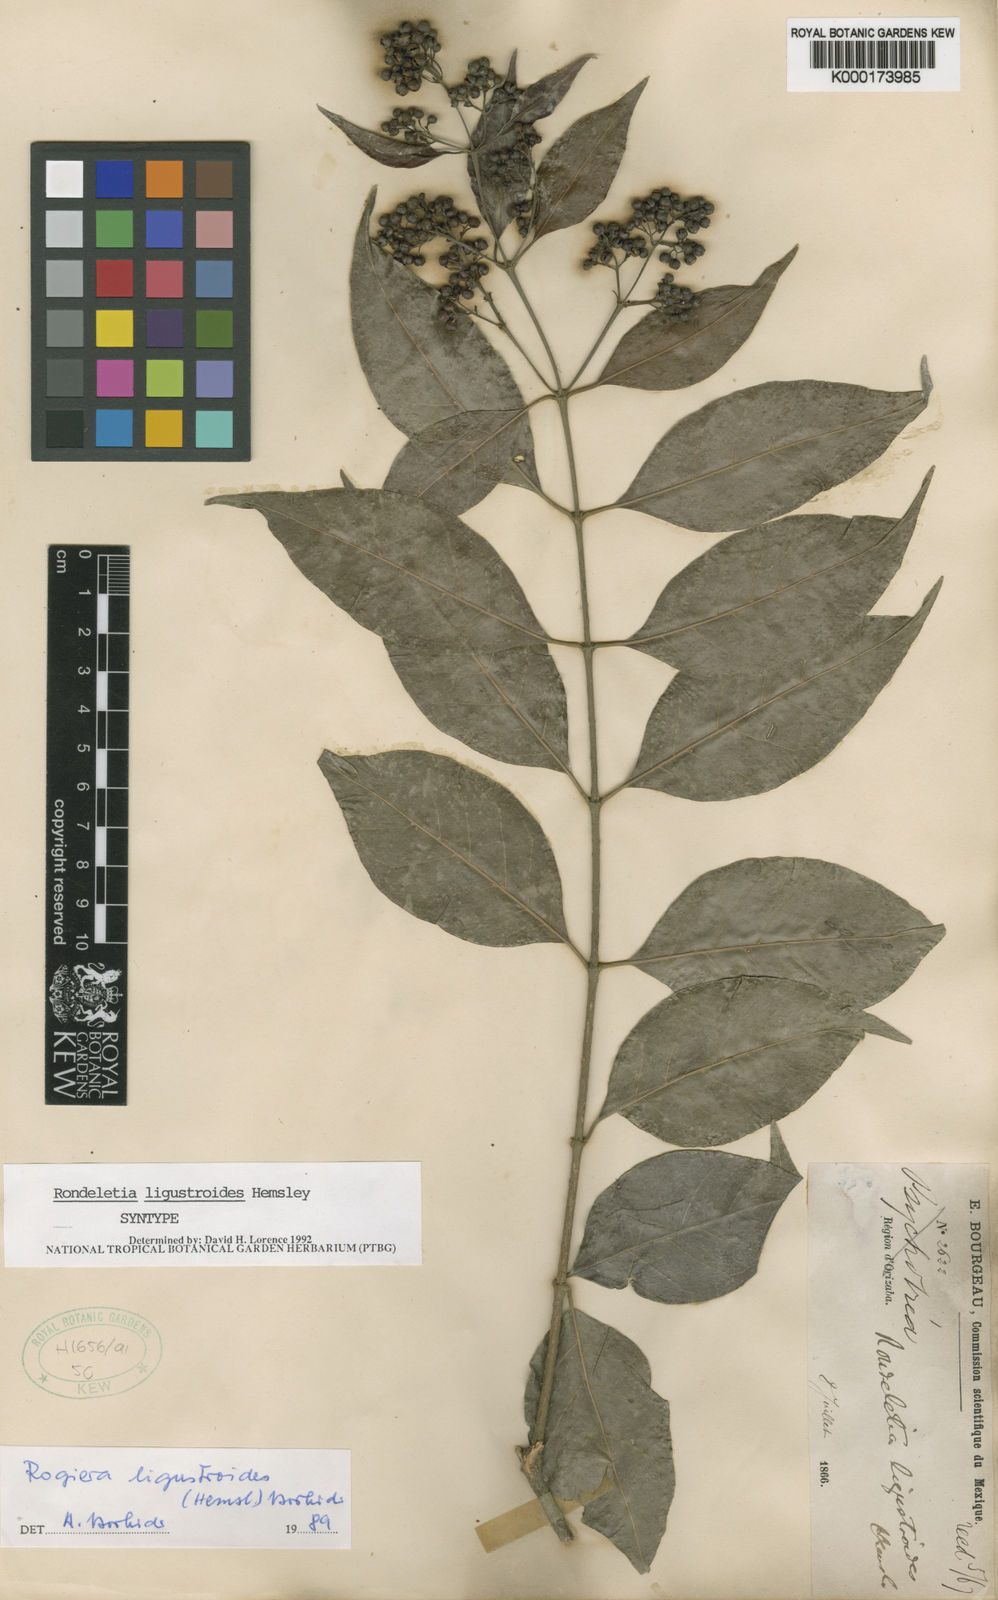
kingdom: Plantae
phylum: Tracheophyta
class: Magnoliopsida
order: Gentianales
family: Rubiaceae
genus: Rogiera
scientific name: Rogiera ligustroides
